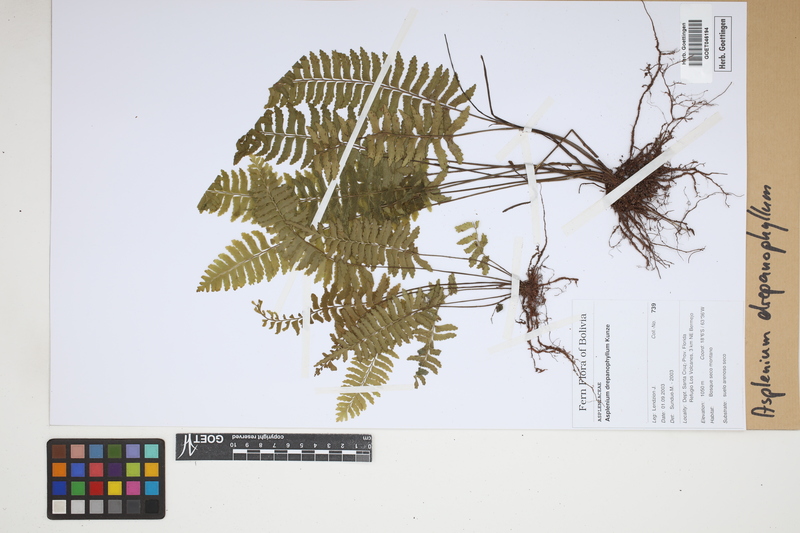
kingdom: Plantae
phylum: Tracheophyta
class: Polypodiopsida
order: Polypodiales
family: Aspleniaceae
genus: Asplenium
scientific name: Asplenium drepanophyllum
